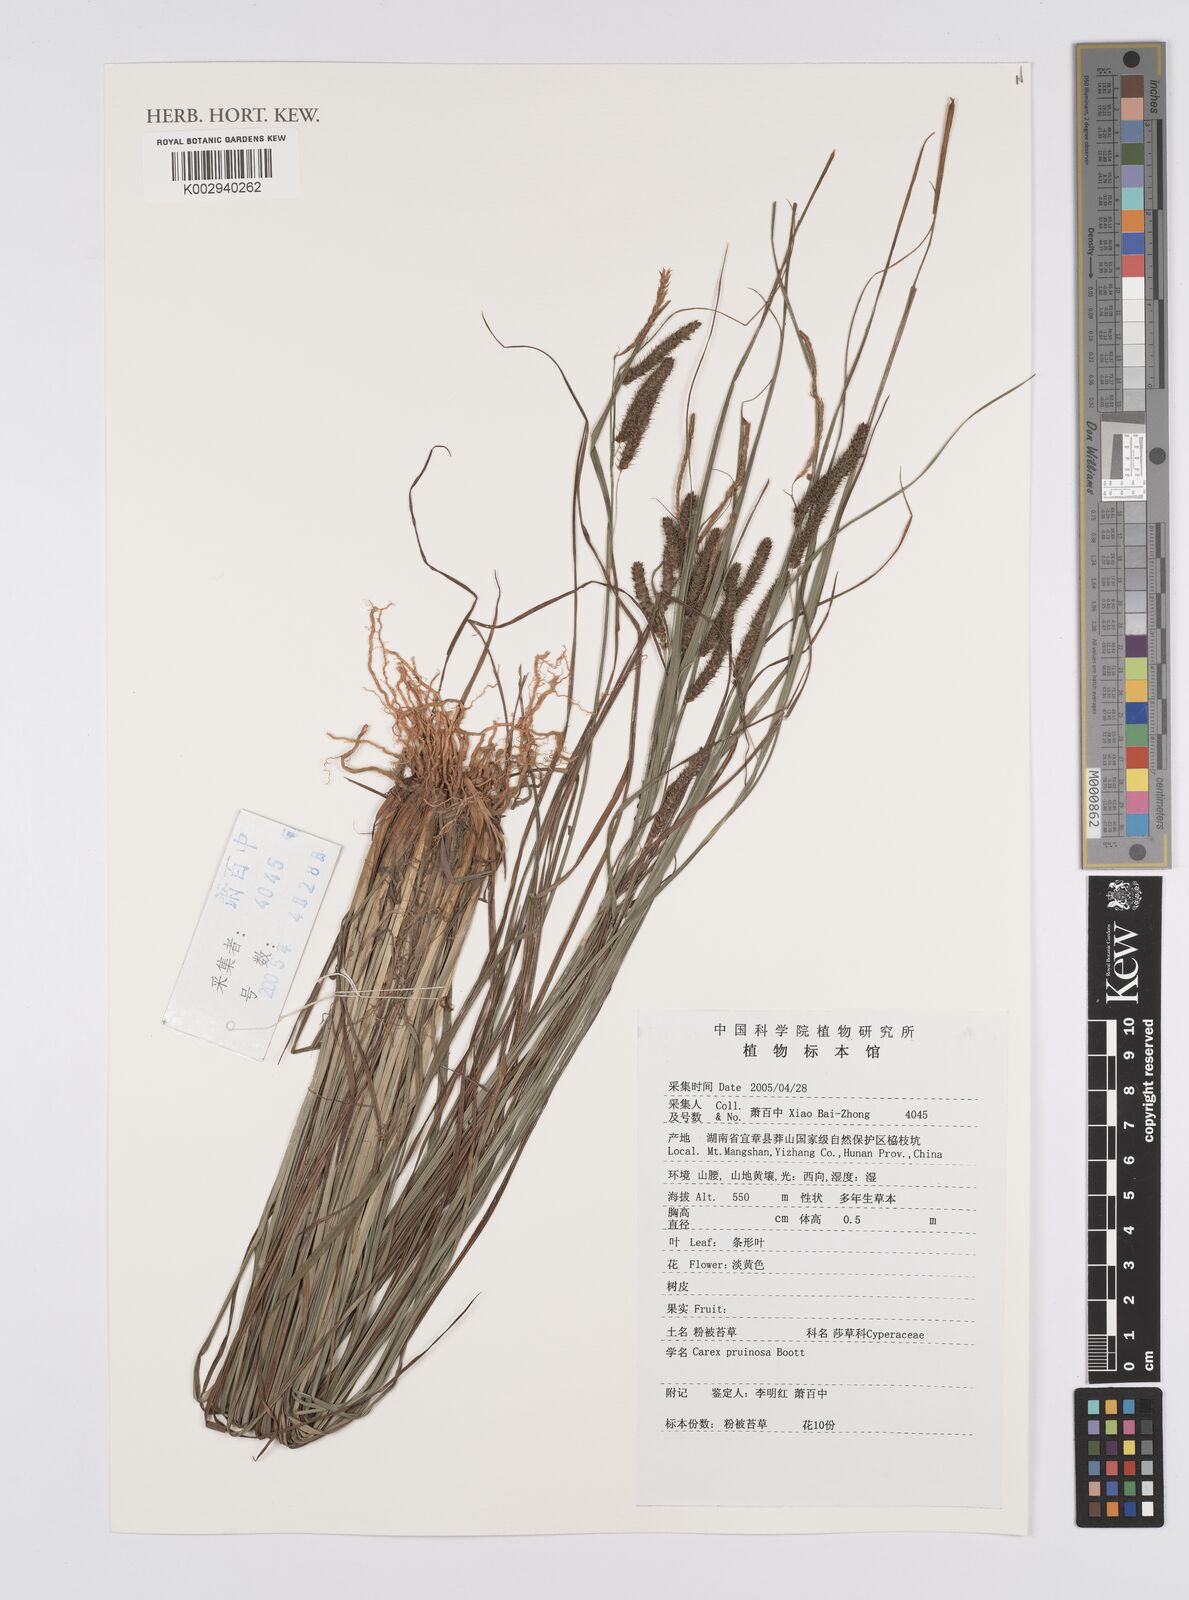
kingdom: Plantae
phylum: Tracheophyta
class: Liliopsida
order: Poales
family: Cyperaceae
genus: Carex
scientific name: Carex pruinosa
